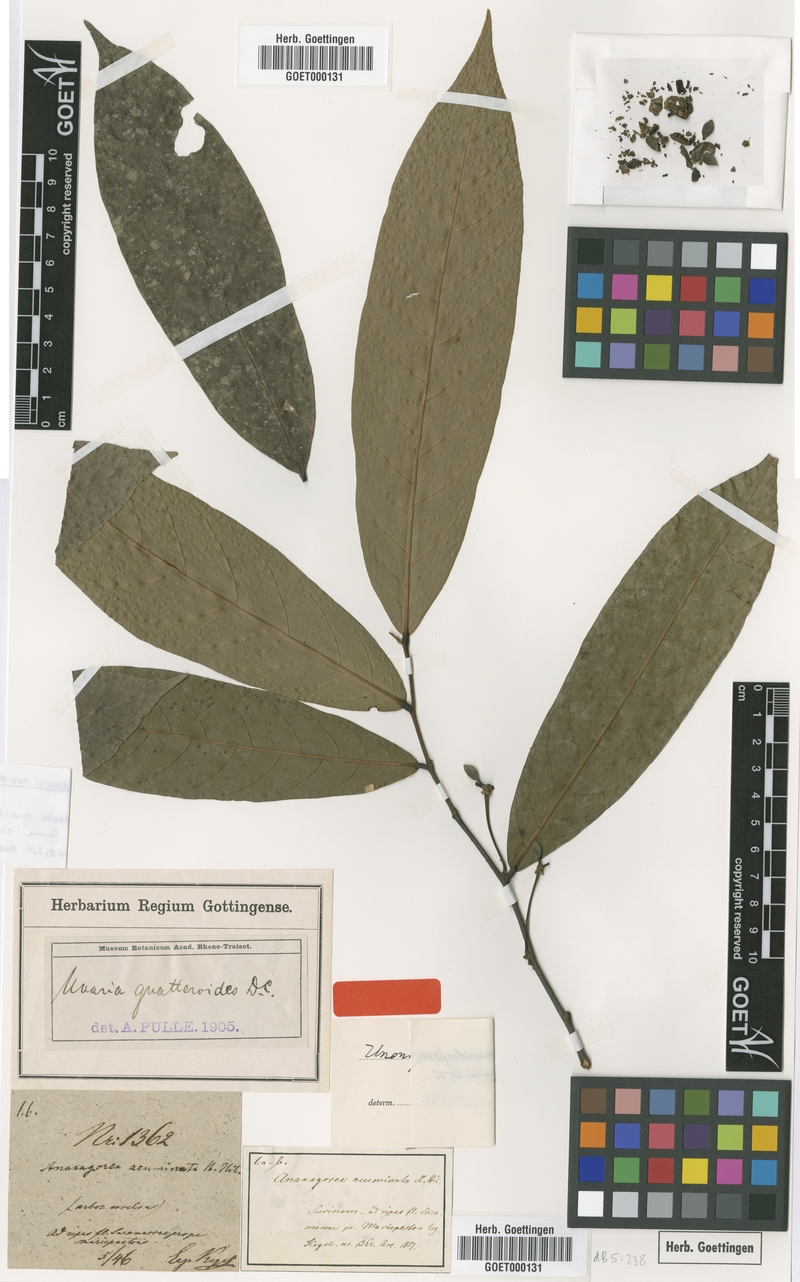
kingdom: Plantae
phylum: Tracheophyta
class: Magnoliopsida
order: Magnoliales
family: Annonaceae
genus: Unonopsis
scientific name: Unonopsis guatterioides
